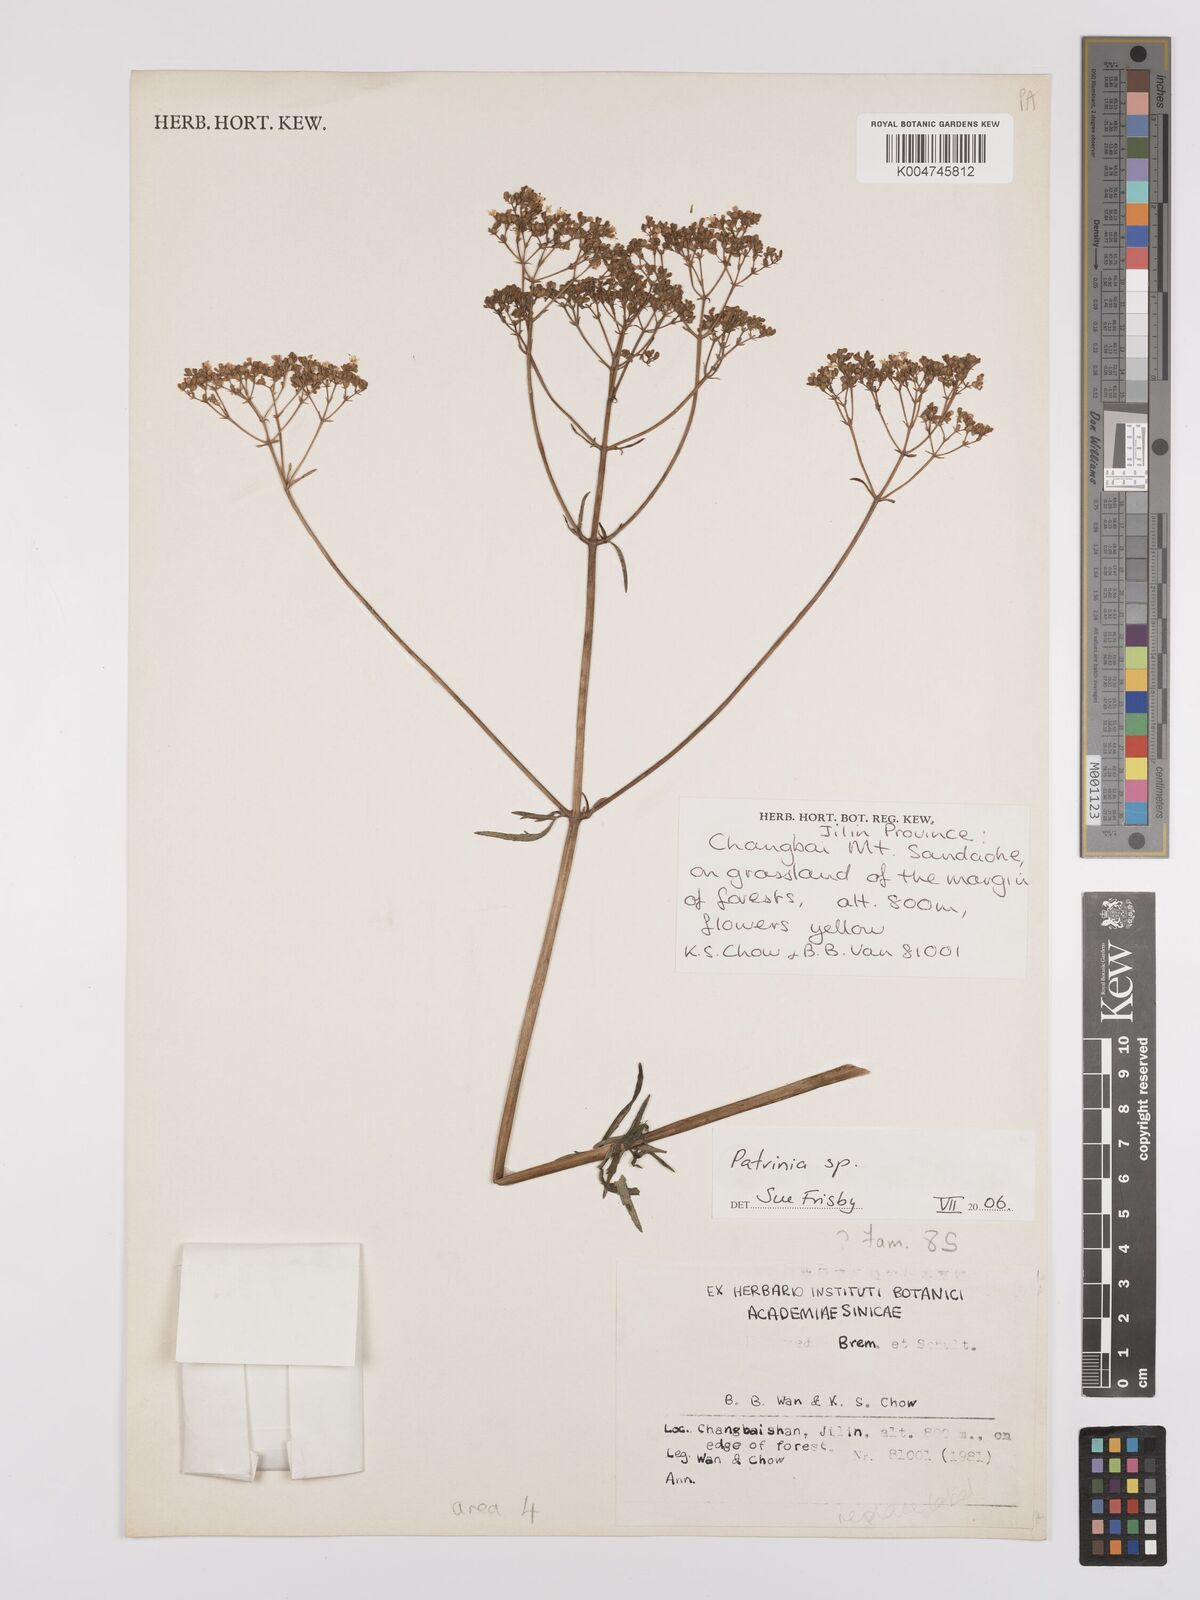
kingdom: Plantae
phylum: Tracheophyta
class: Magnoliopsida
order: Dipsacales
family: Caprifoliaceae
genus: Patrinia
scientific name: Patrinia
